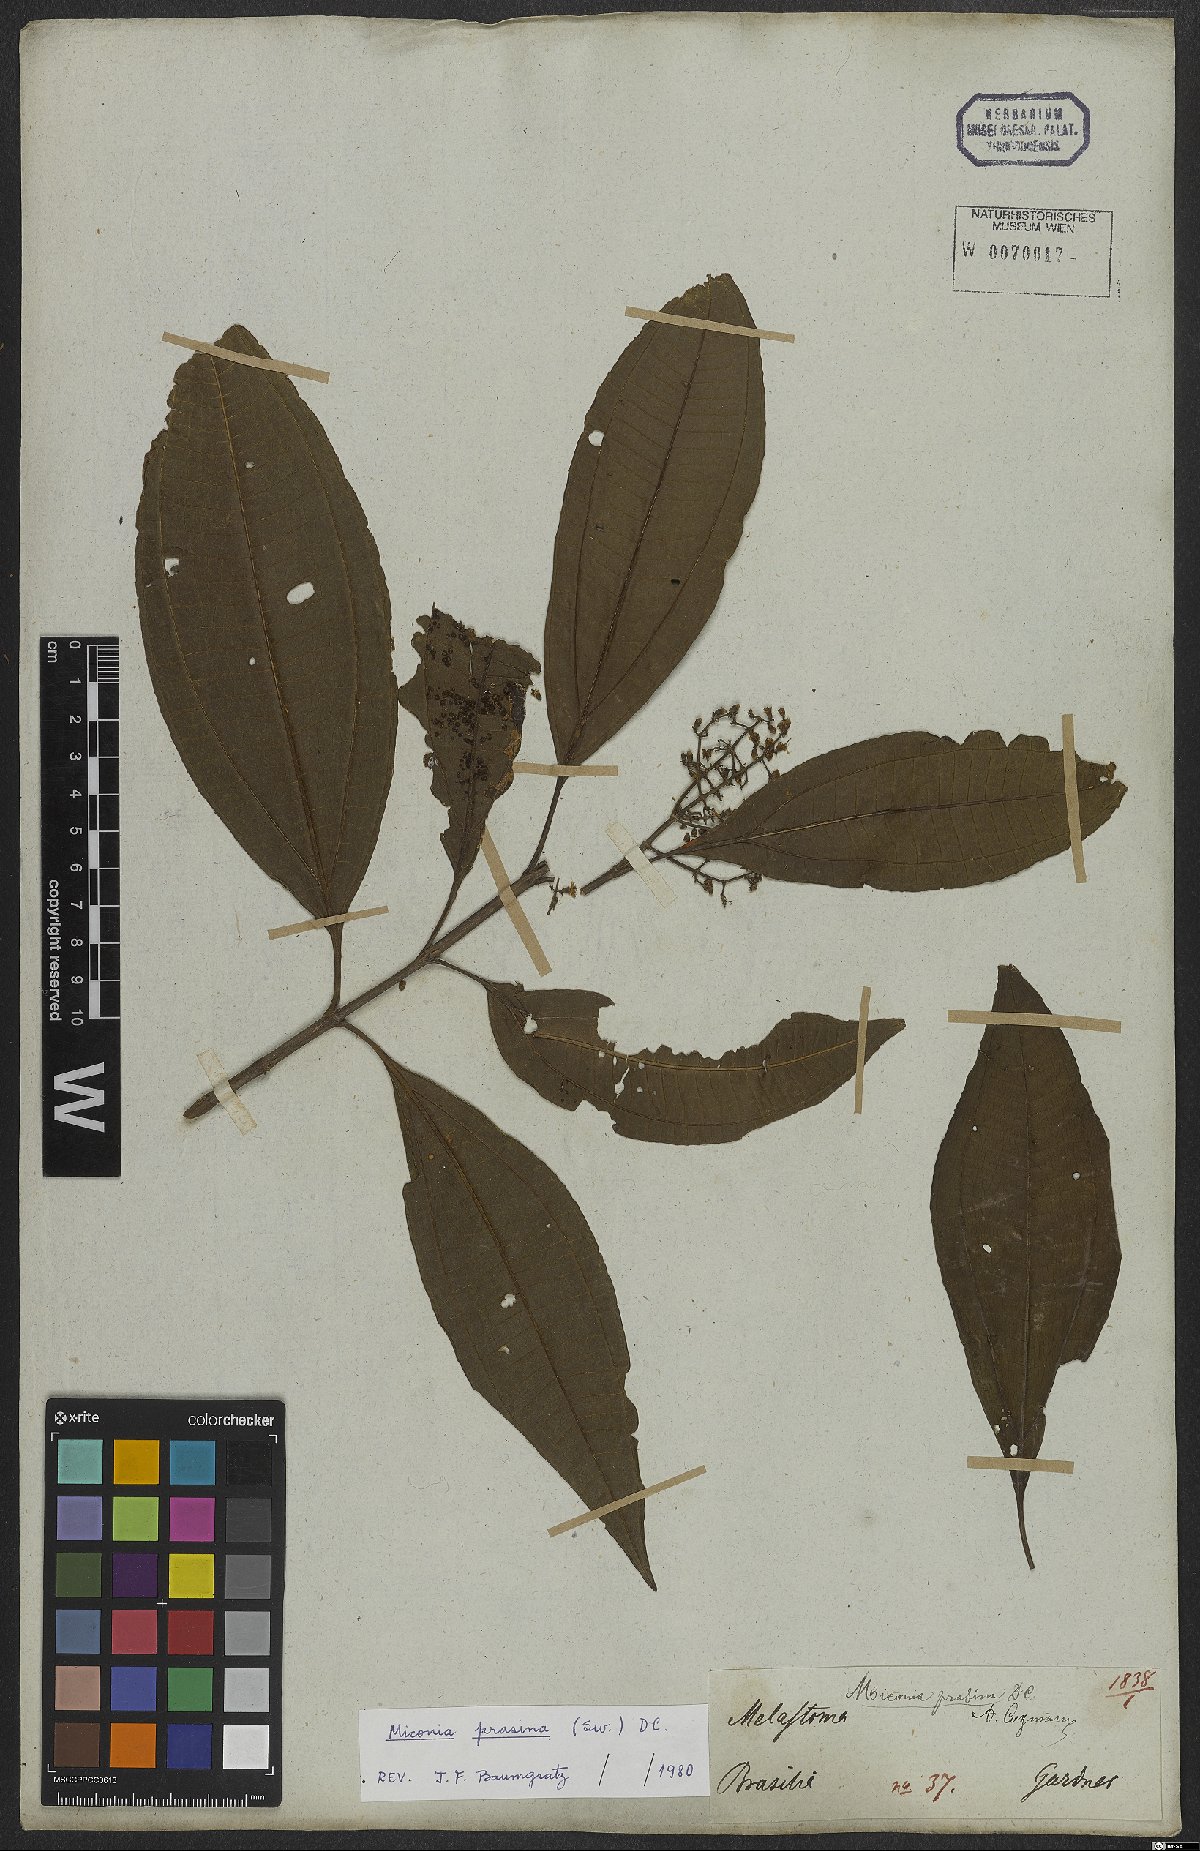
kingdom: Plantae
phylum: Tracheophyta
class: Magnoliopsida
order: Myrtales
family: Melastomataceae
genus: Miconia
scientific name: Miconia prasina
